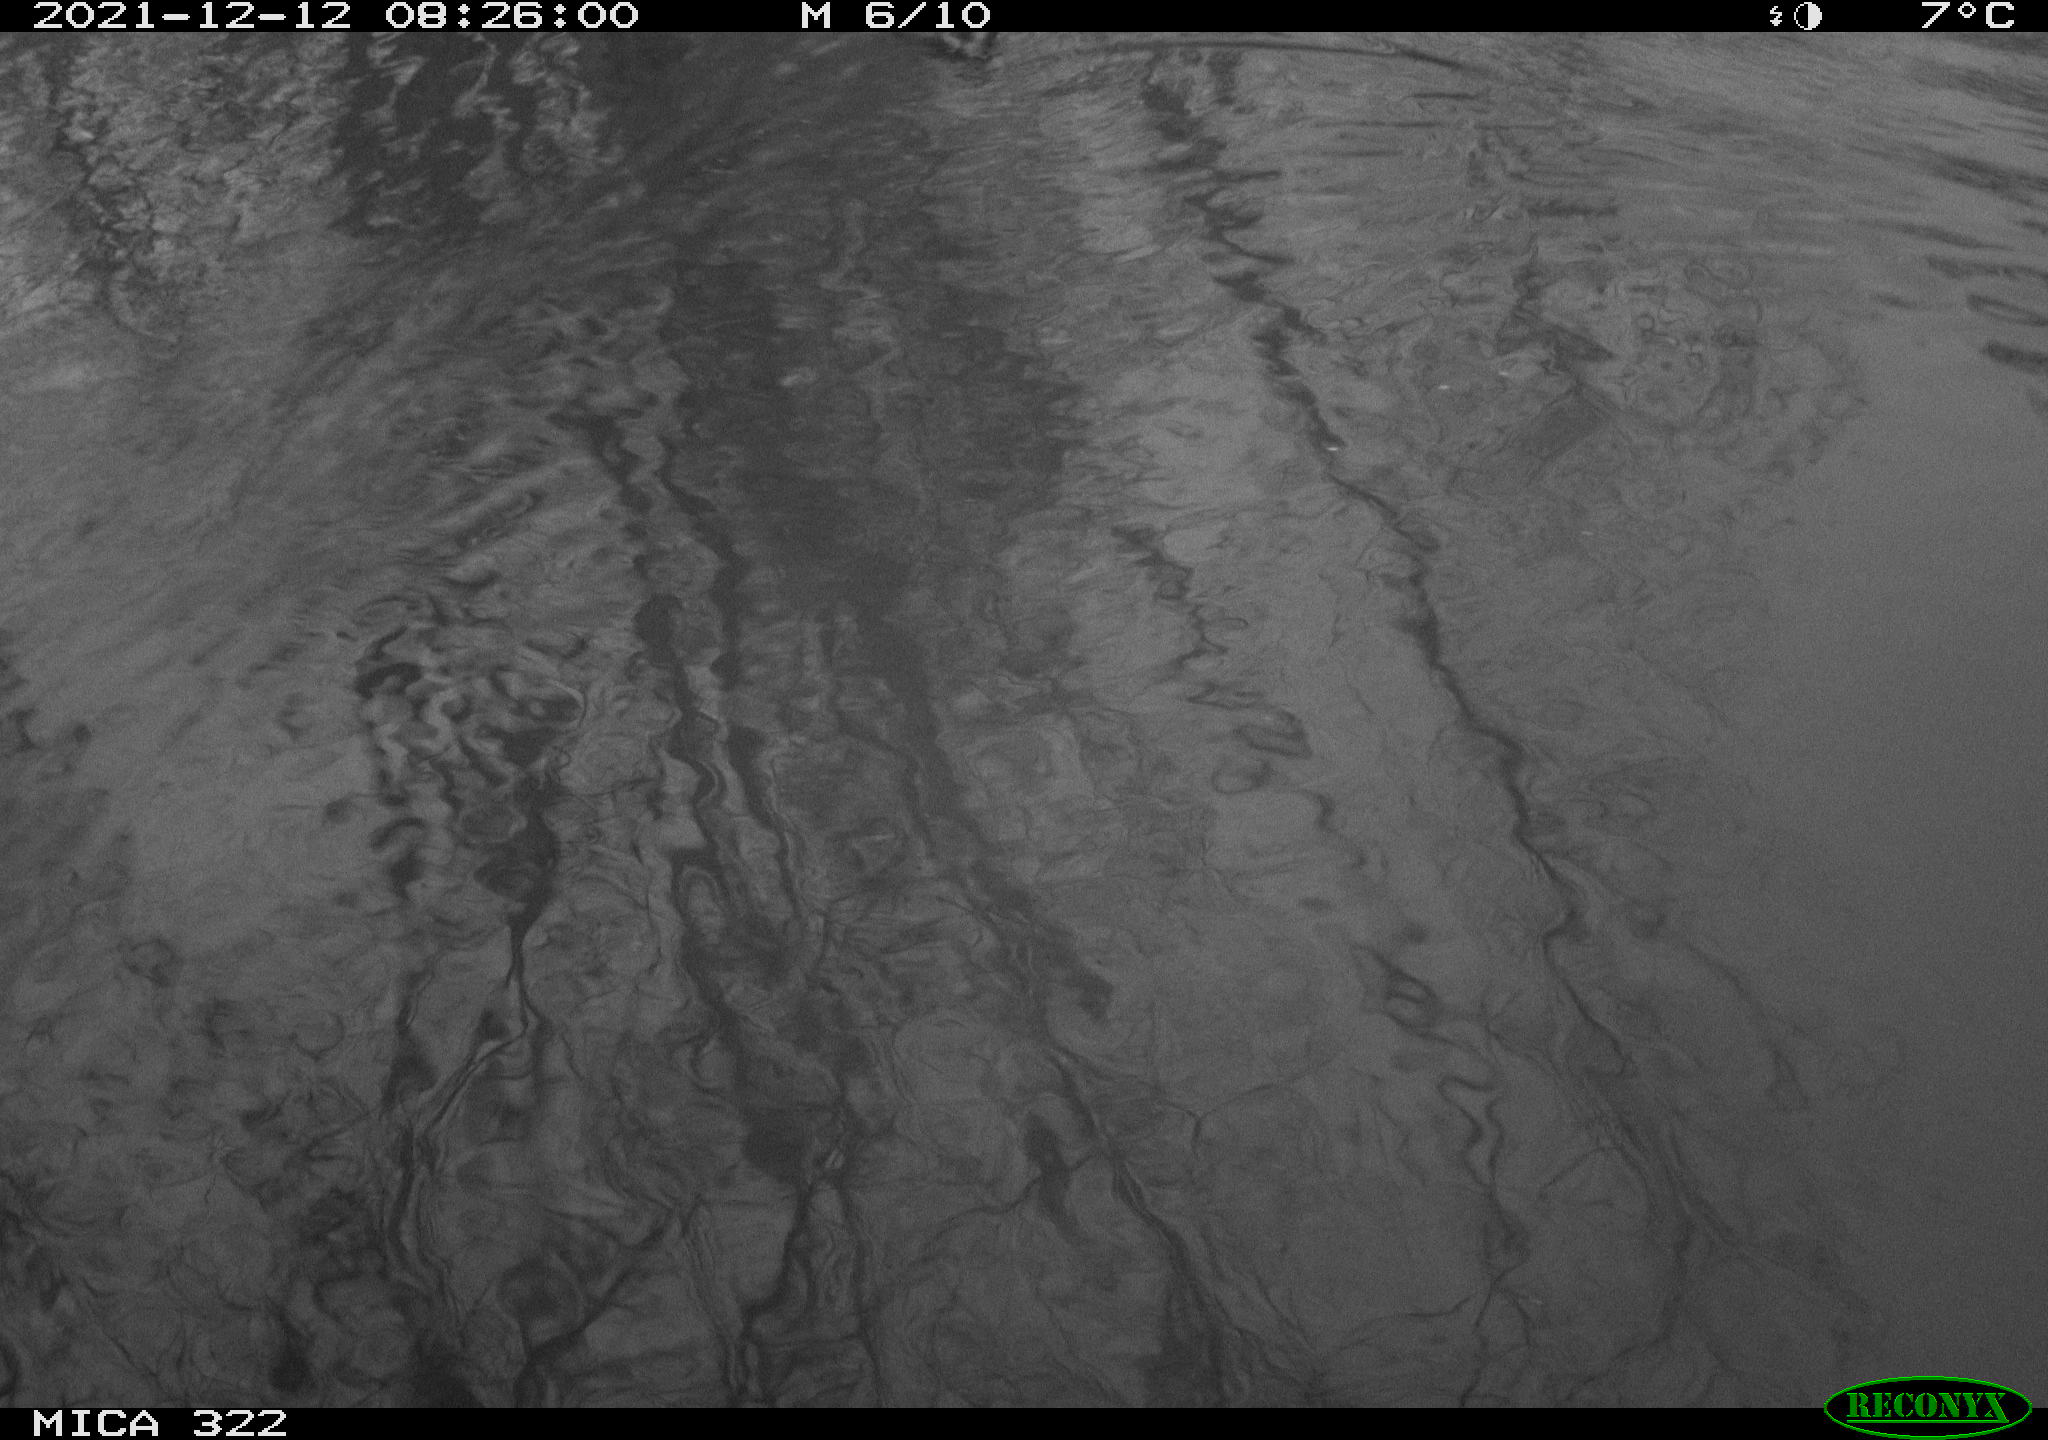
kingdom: Animalia
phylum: Chordata
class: Aves
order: Anseriformes
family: Anatidae
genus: Anas
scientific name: Anas
